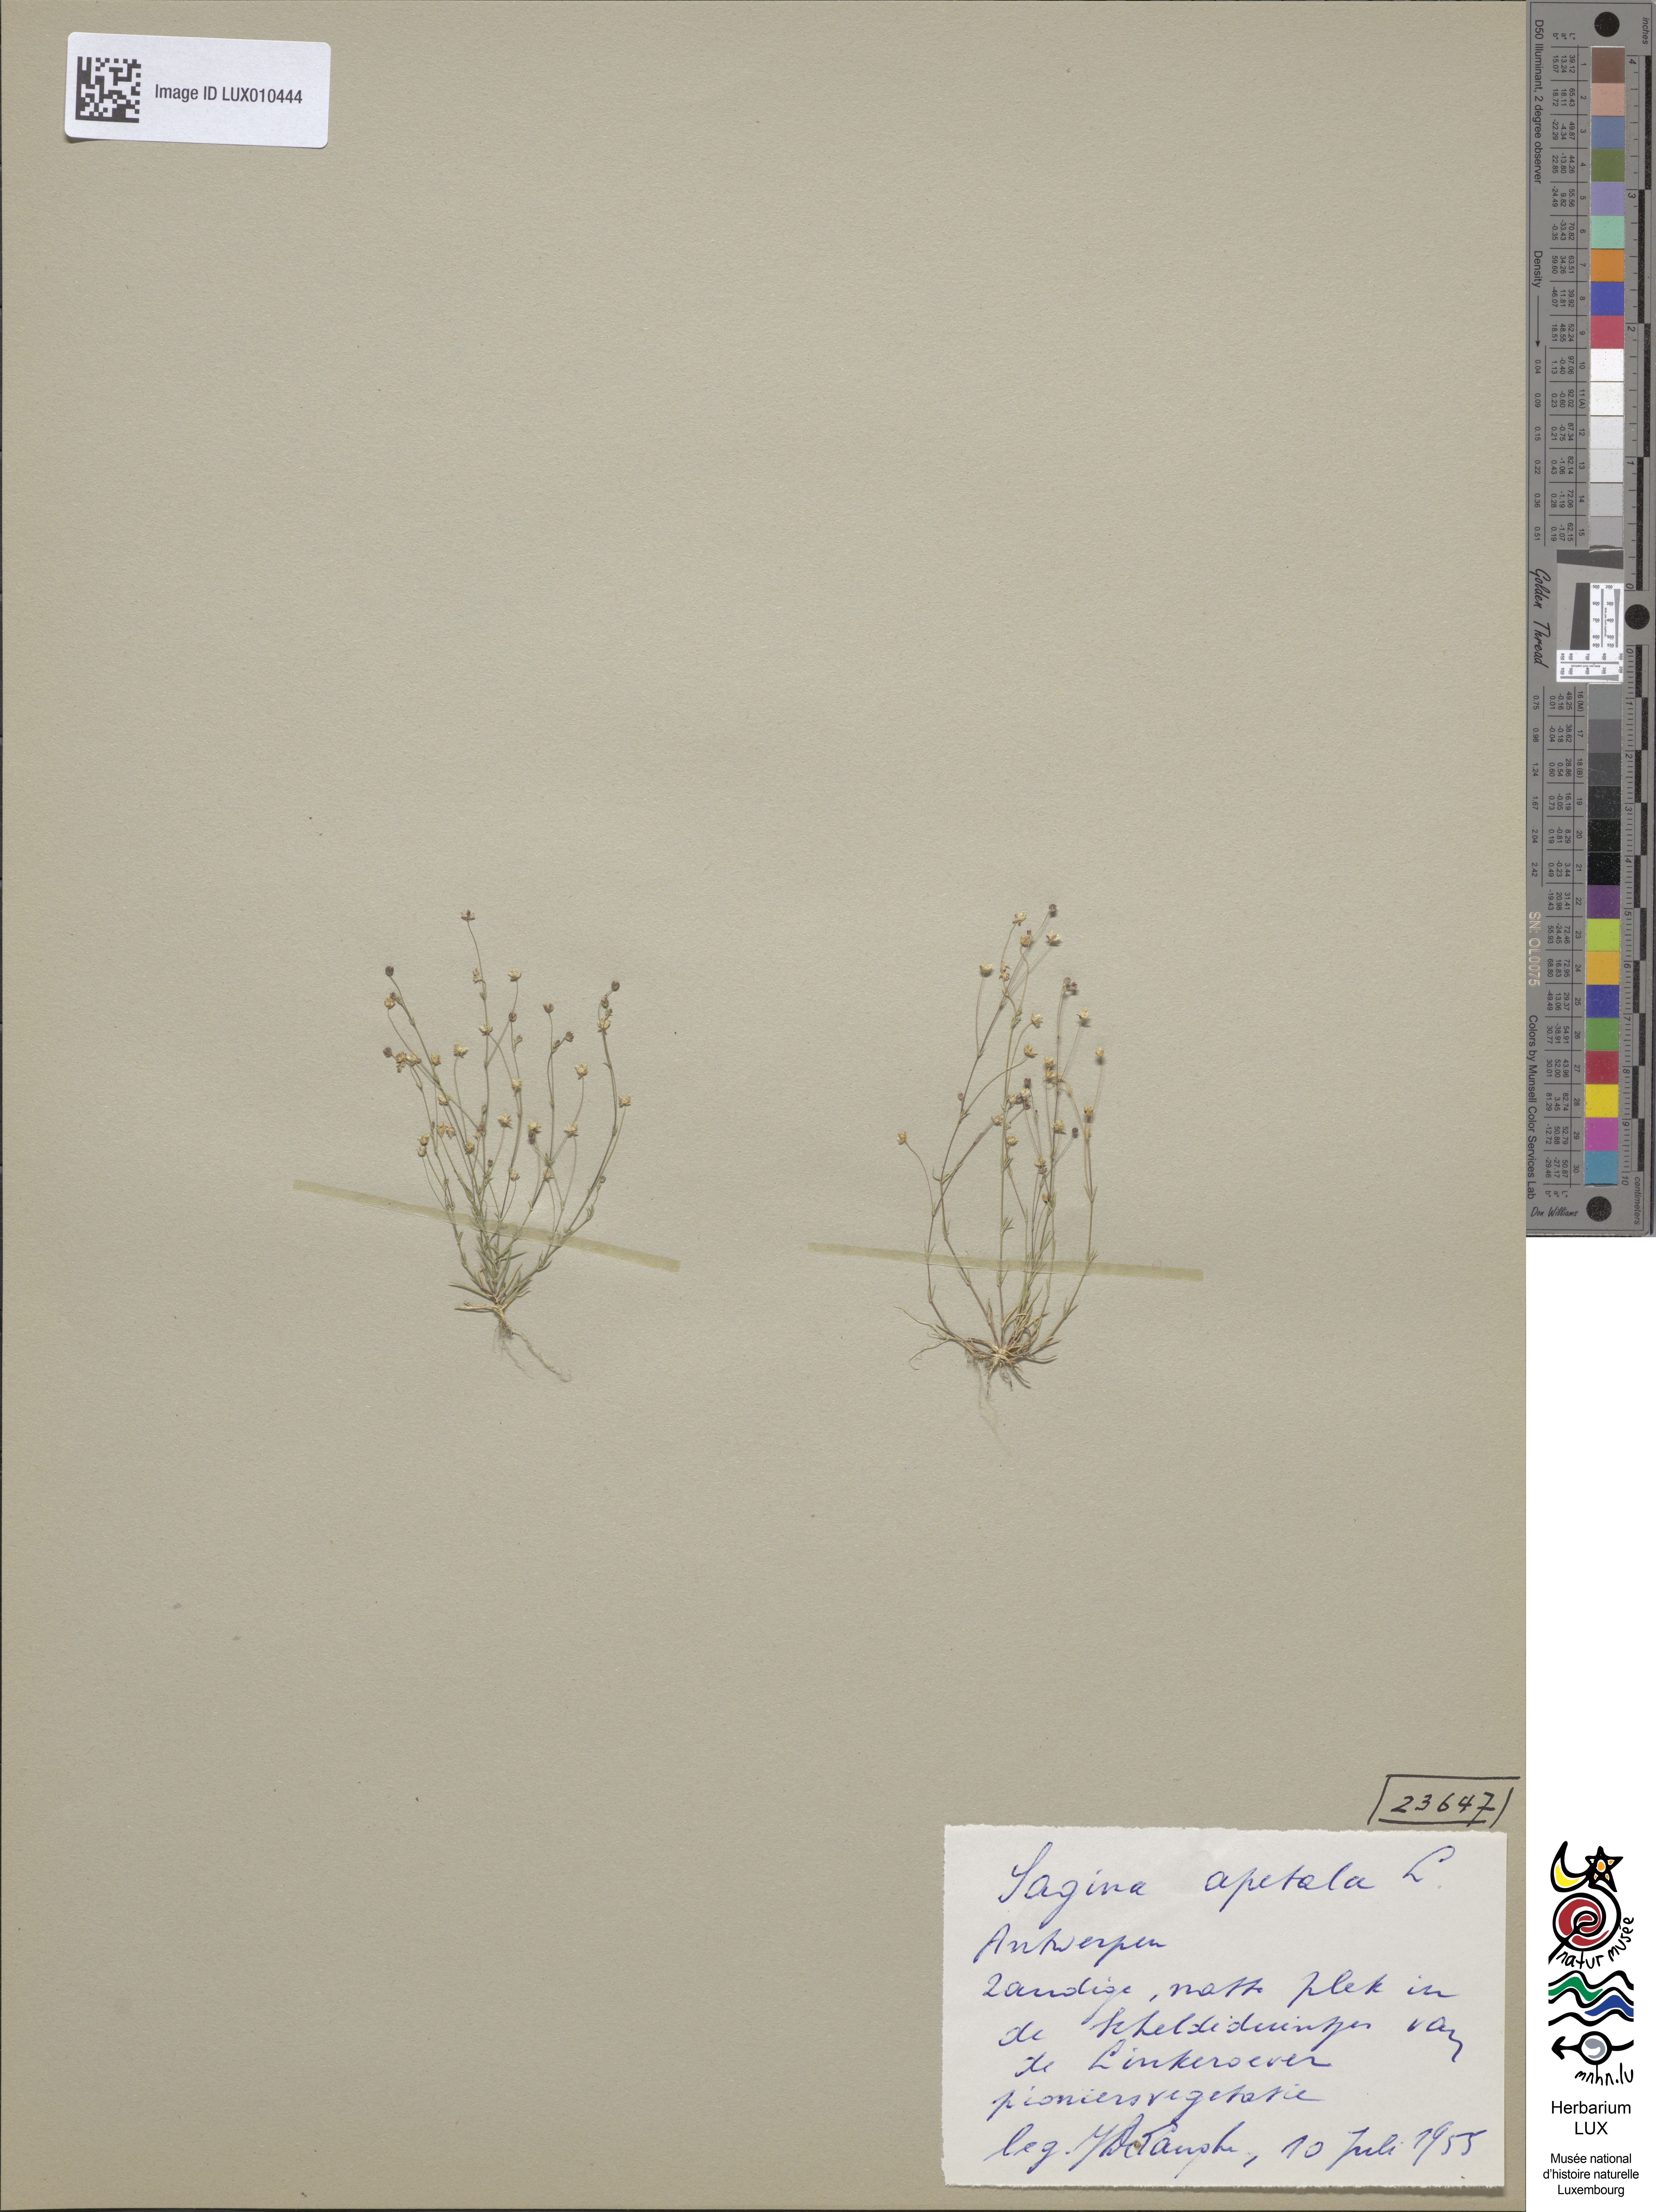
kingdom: Plantae
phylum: Tracheophyta
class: Magnoliopsida
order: Caryophyllales
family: Caryophyllaceae
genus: Sagina
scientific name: Sagina apetala
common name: Annual pearlwort
